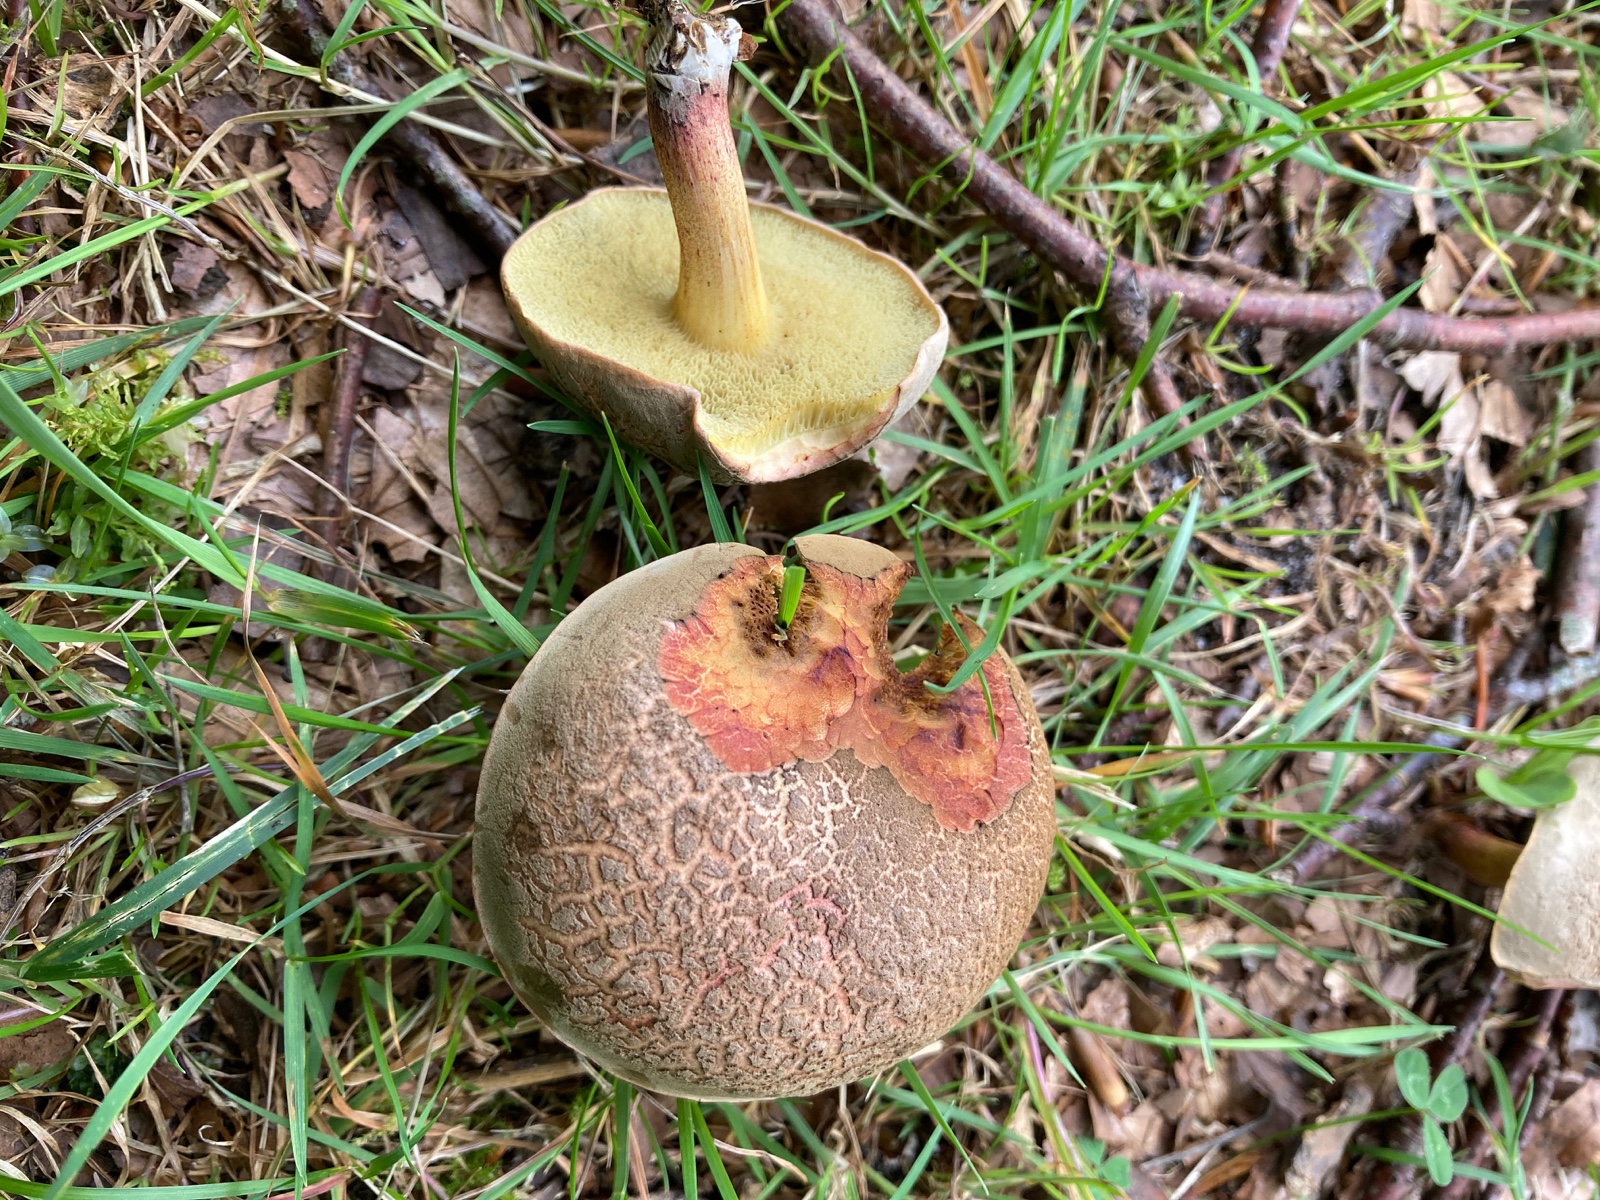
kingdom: Fungi
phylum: Basidiomycota
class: Agaricomycetes
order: Boletales
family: Boletaceae
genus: Xerocomellus
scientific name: Xerocomellus
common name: dværgrørhat
